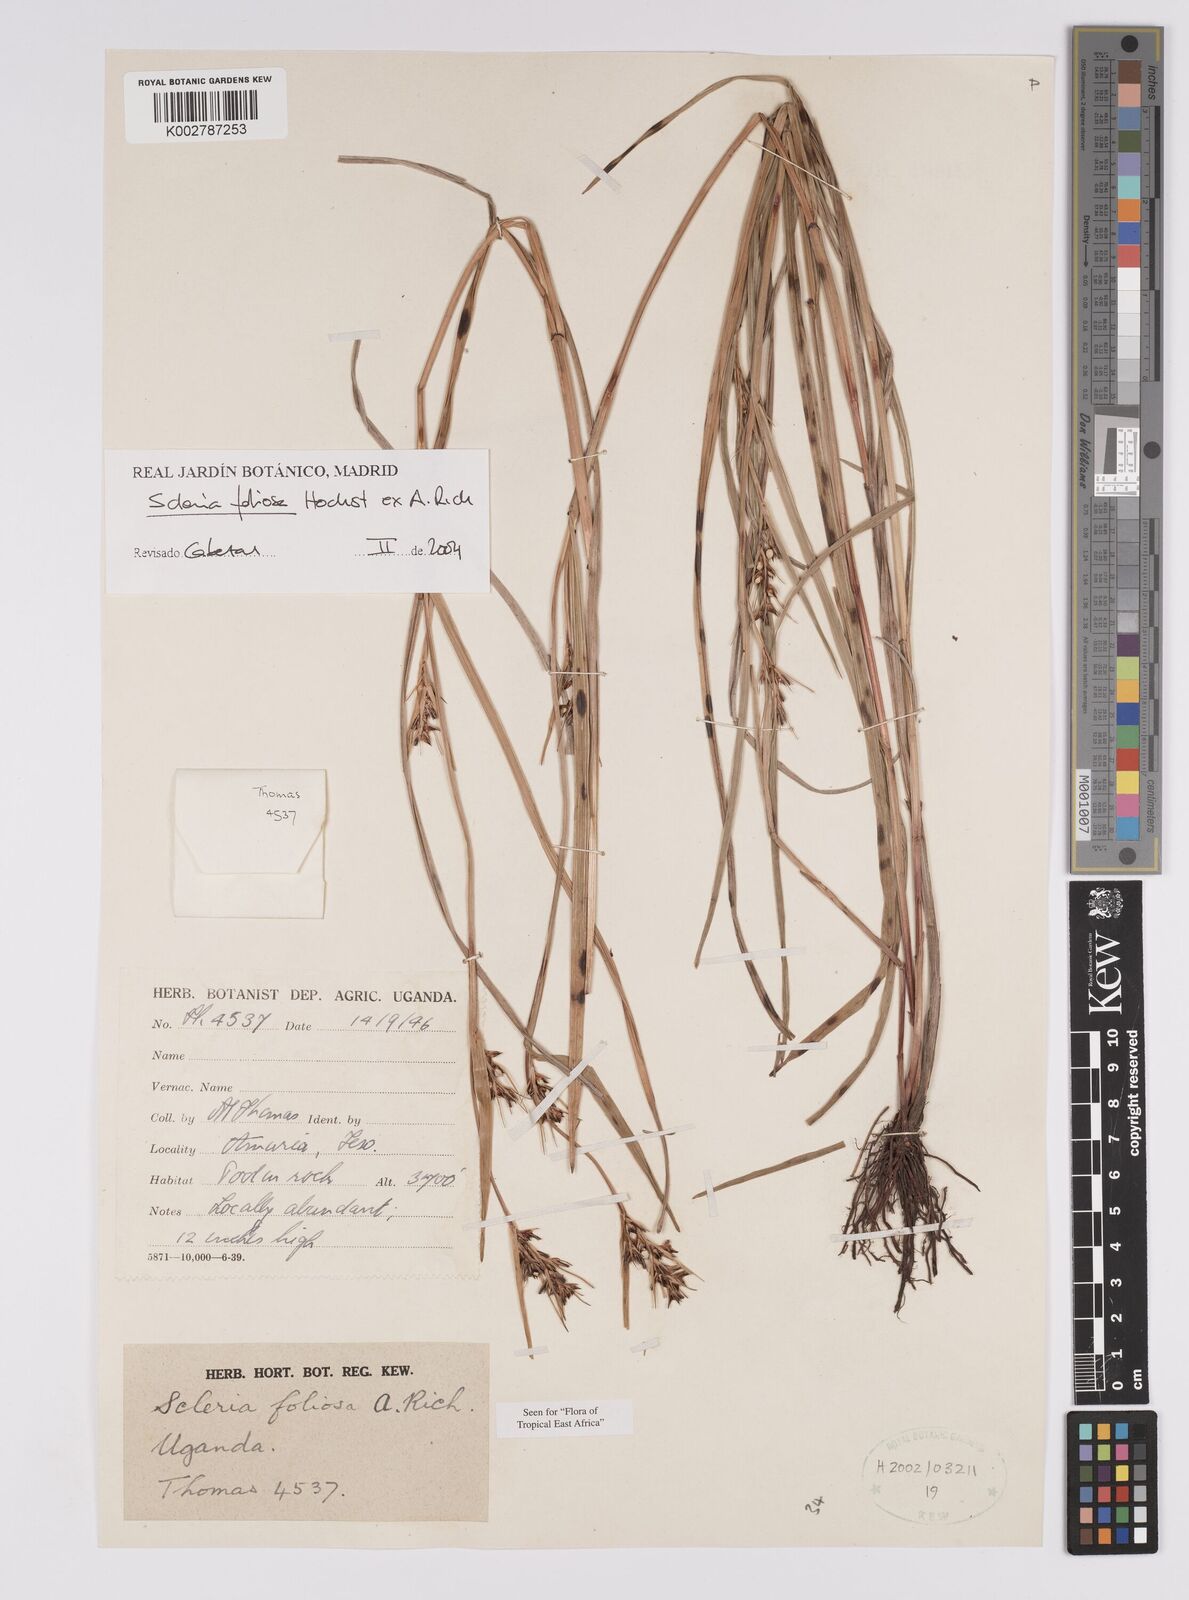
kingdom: Plantae
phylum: Tracheophyta
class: Liliopsida
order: Poales
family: Cyperaceae
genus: Scleria
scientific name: Scleria foliosa
